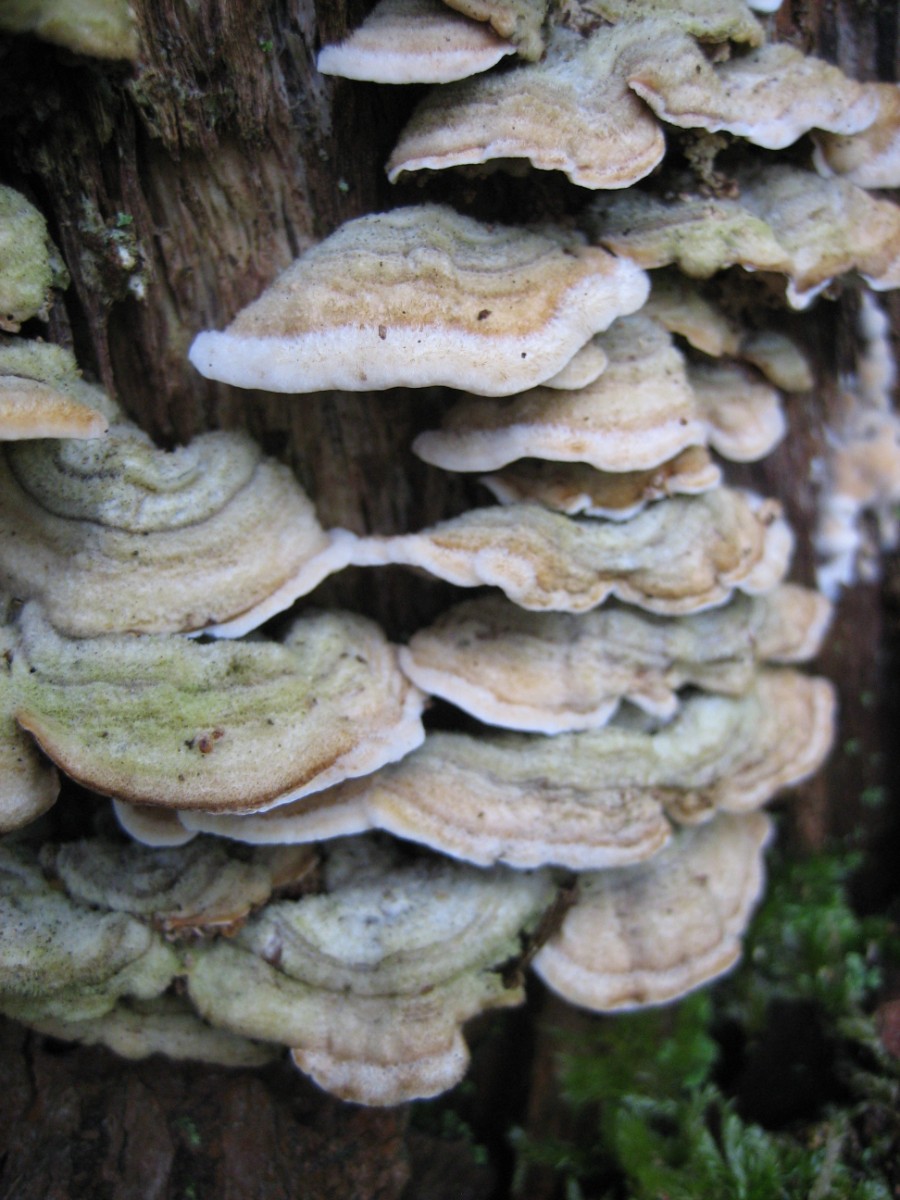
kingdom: Fungi
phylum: Basidiomycota
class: Agaricomycetes
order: Russulales
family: Stereaceae
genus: Stereum
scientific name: Stereum hirsutum
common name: håret lædersvamp
